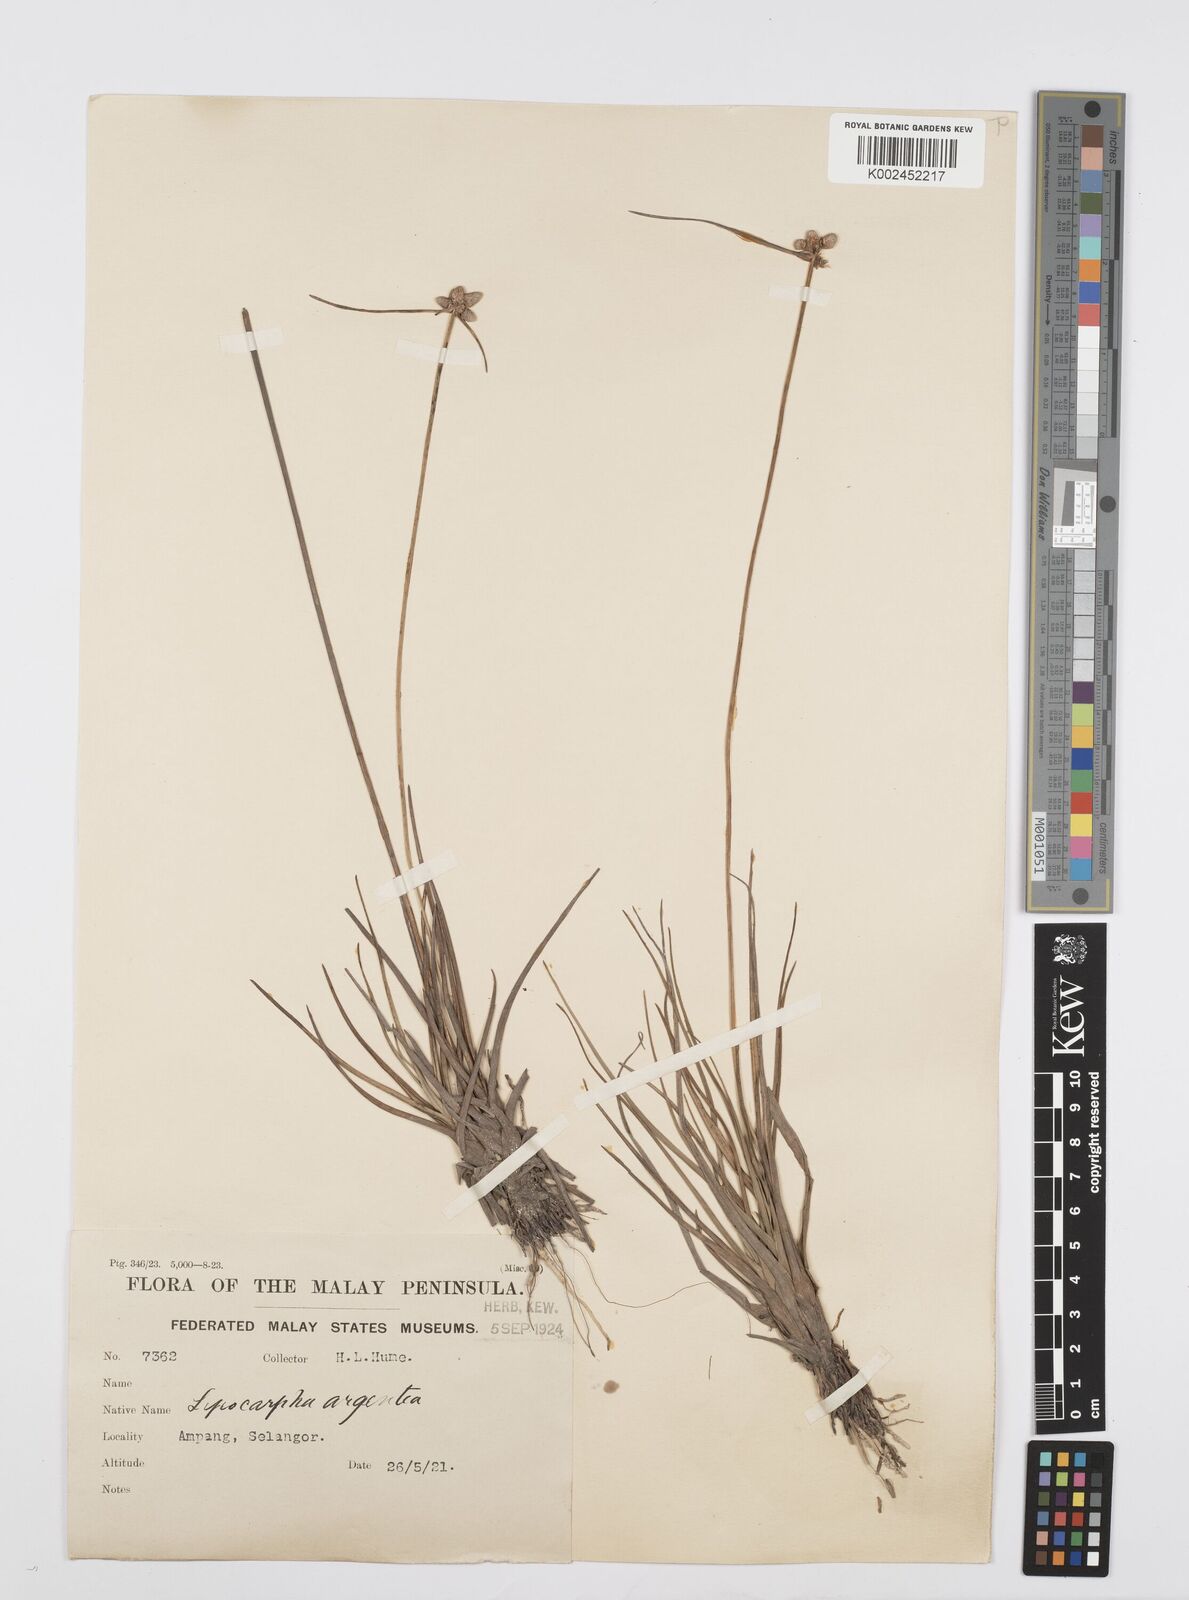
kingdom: Plantae
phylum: Tracheophyta
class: Liliopsida
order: Poales
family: Cyperaceae
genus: Cyperus
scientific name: Cyperus
